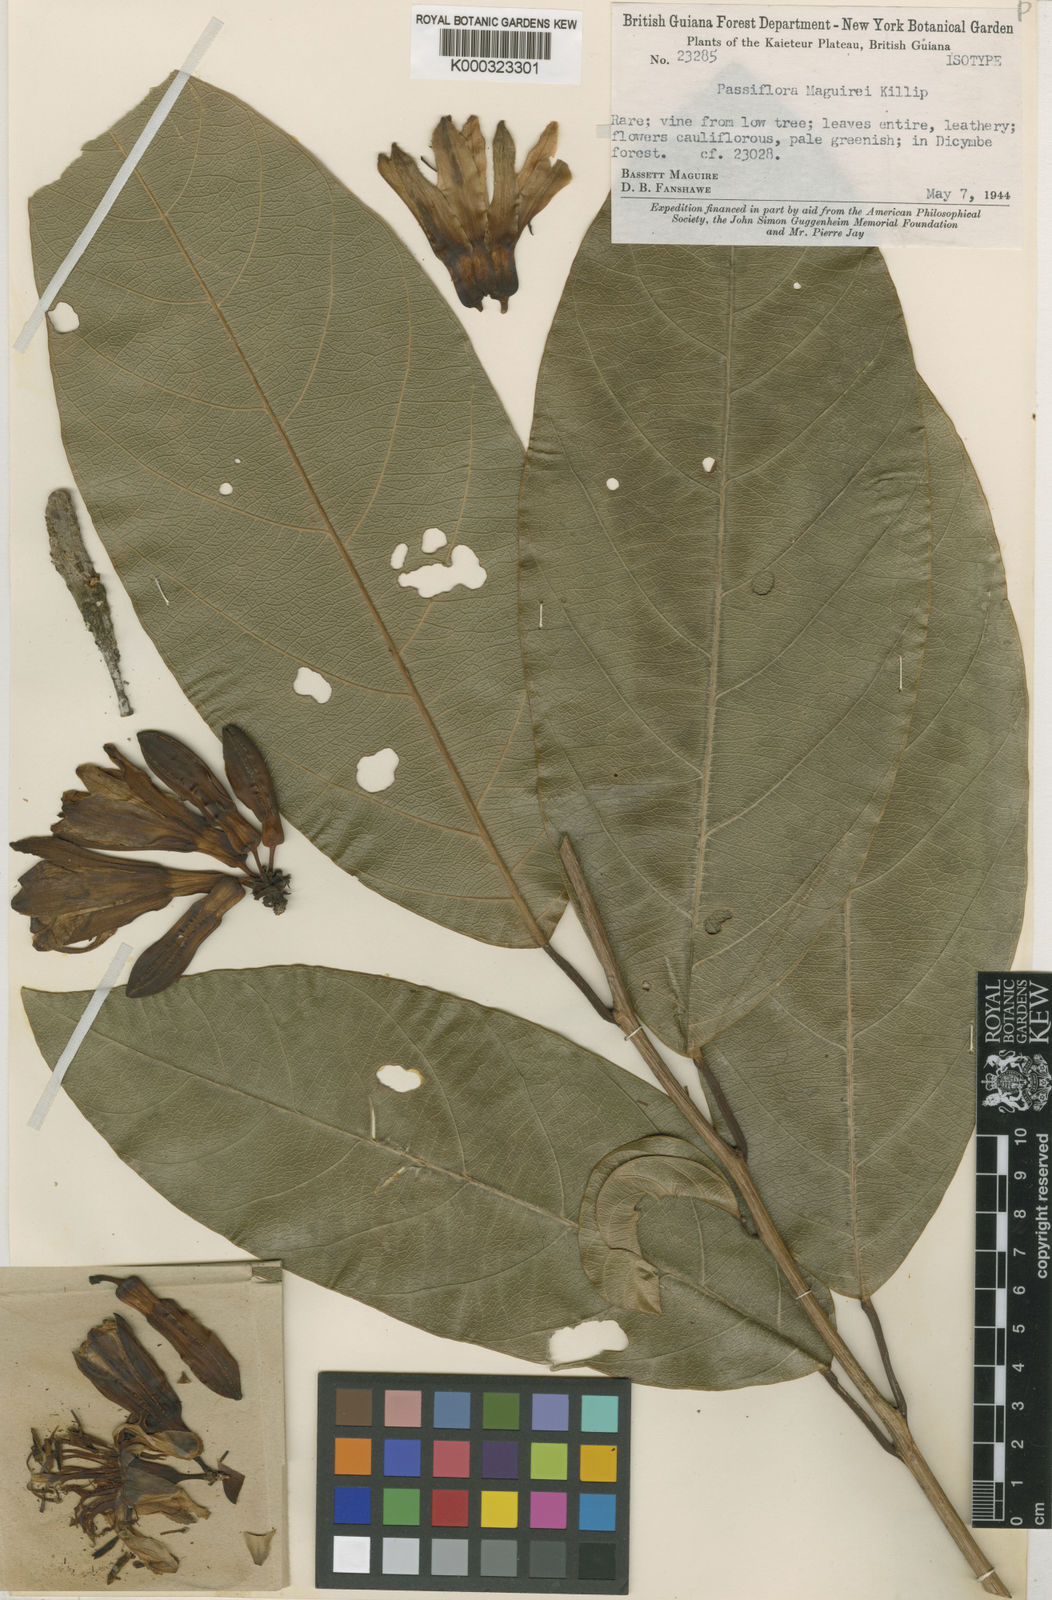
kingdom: Plantae
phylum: Tracheophyta
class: Magnoliopsida
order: Malpighiales
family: Passifloraceae
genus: Passiflora
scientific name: Passiflora maguirei
